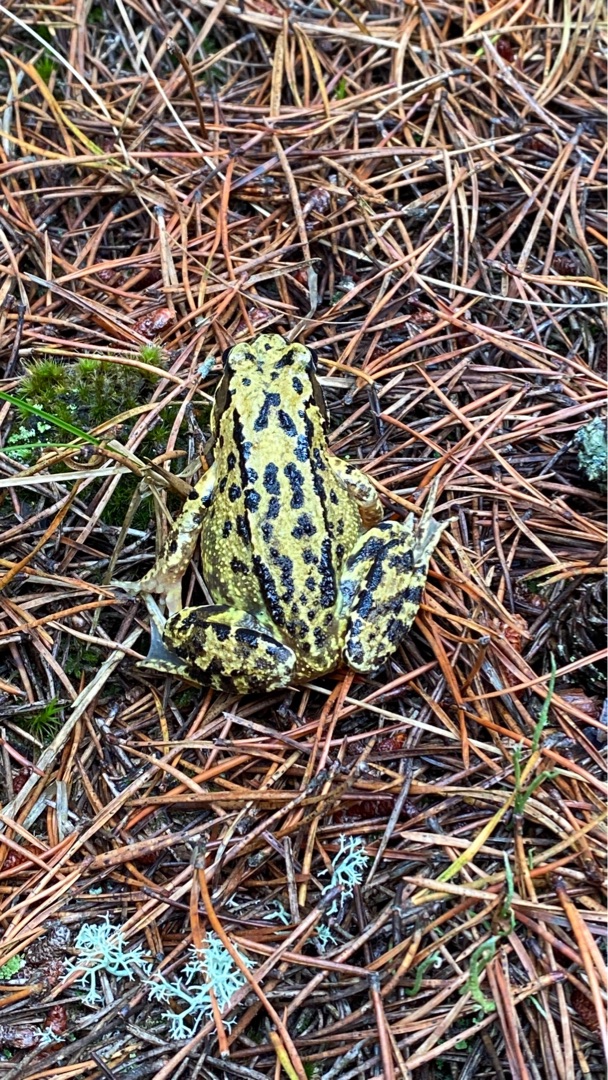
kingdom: Animalia
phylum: Chordata
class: Amphibia
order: Anura
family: Ranidae
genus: Rana
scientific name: Rana temporaria
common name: Butsnudet frø
